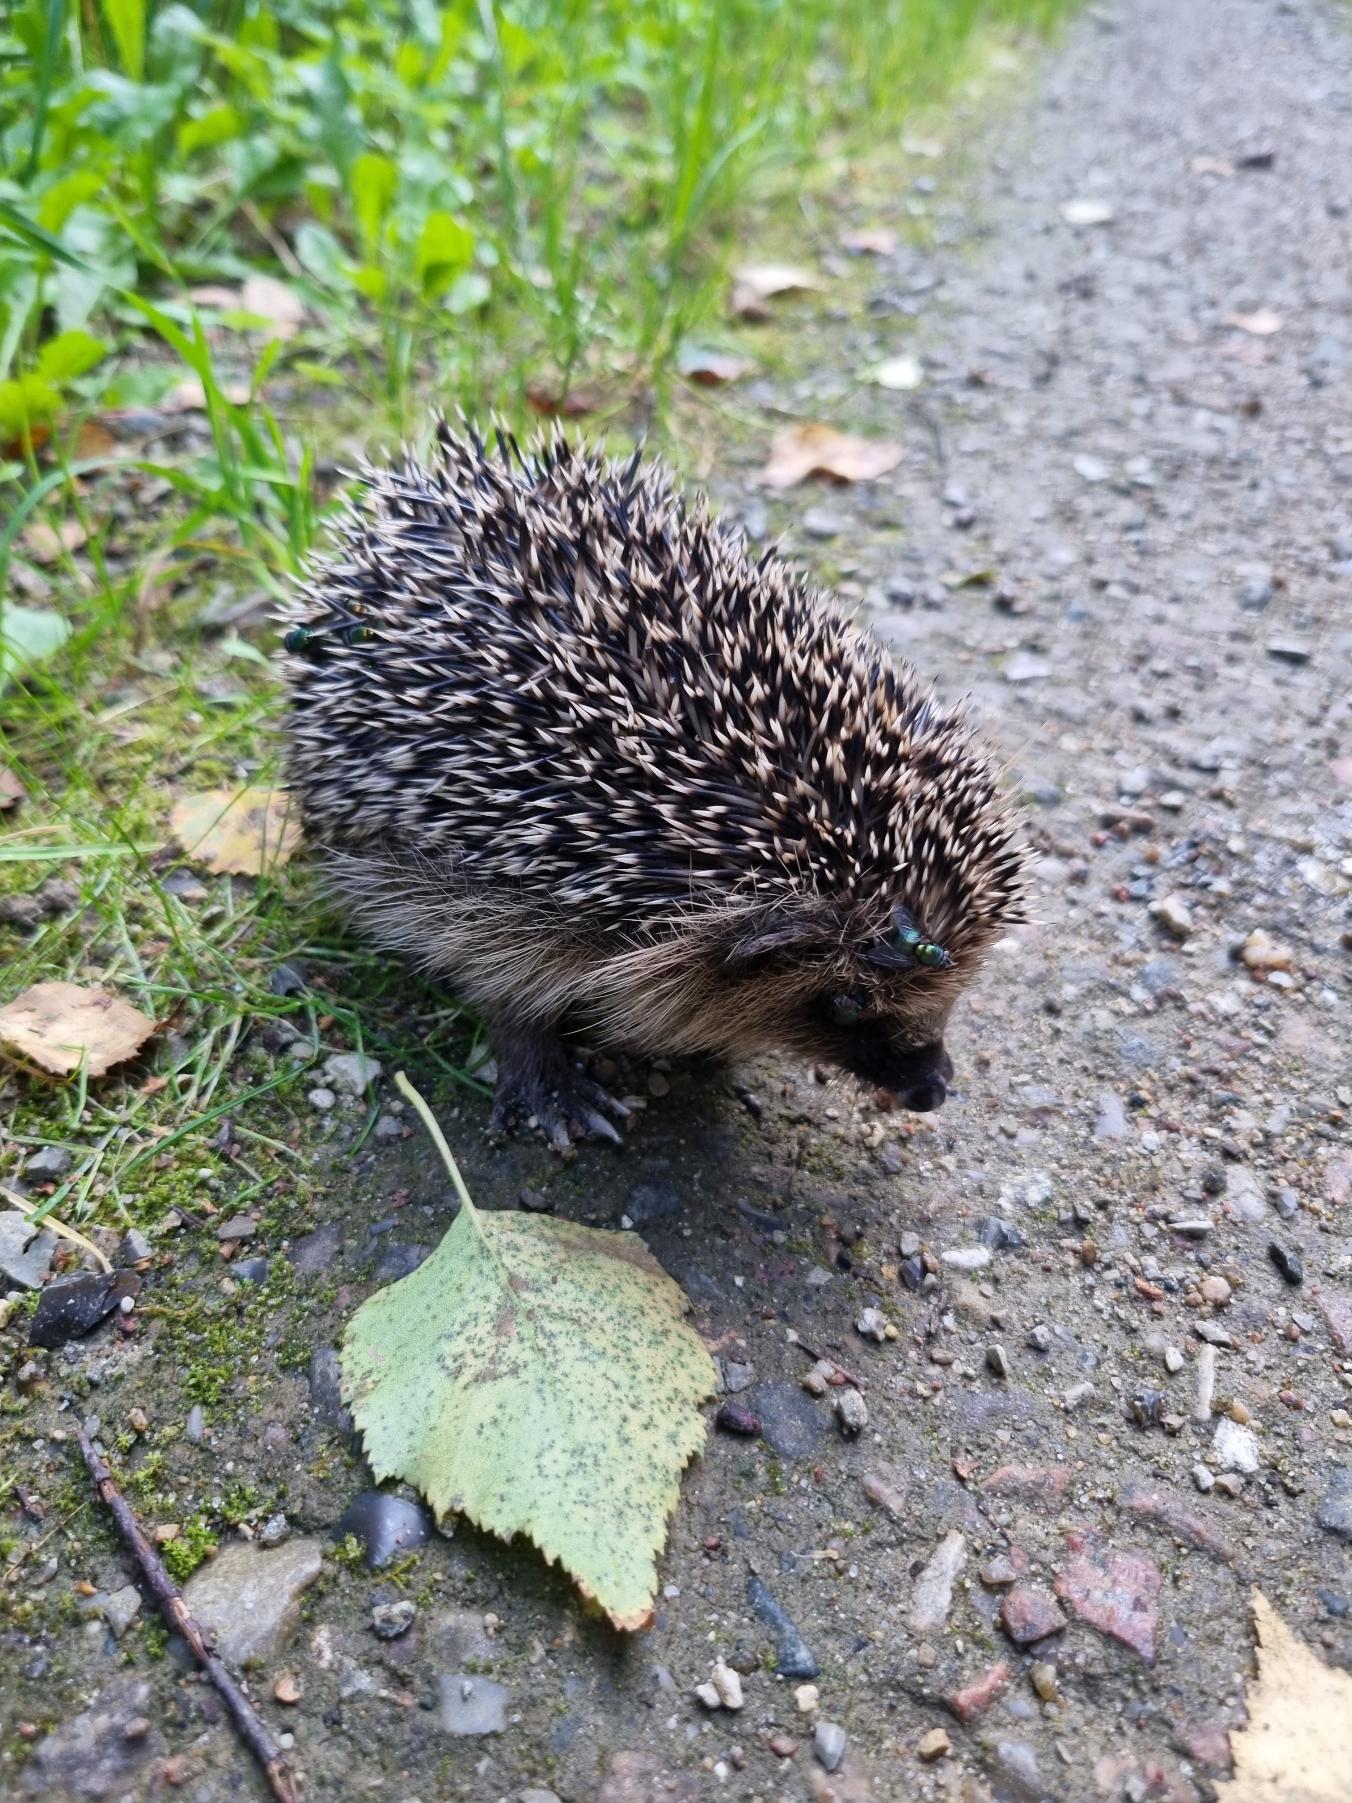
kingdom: Animalia
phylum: Chordata
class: Mammalia
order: Erinaceomorpha
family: Erinaceidae
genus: Erinaceus
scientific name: Erinaceus europaeus
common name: Pindsvin
